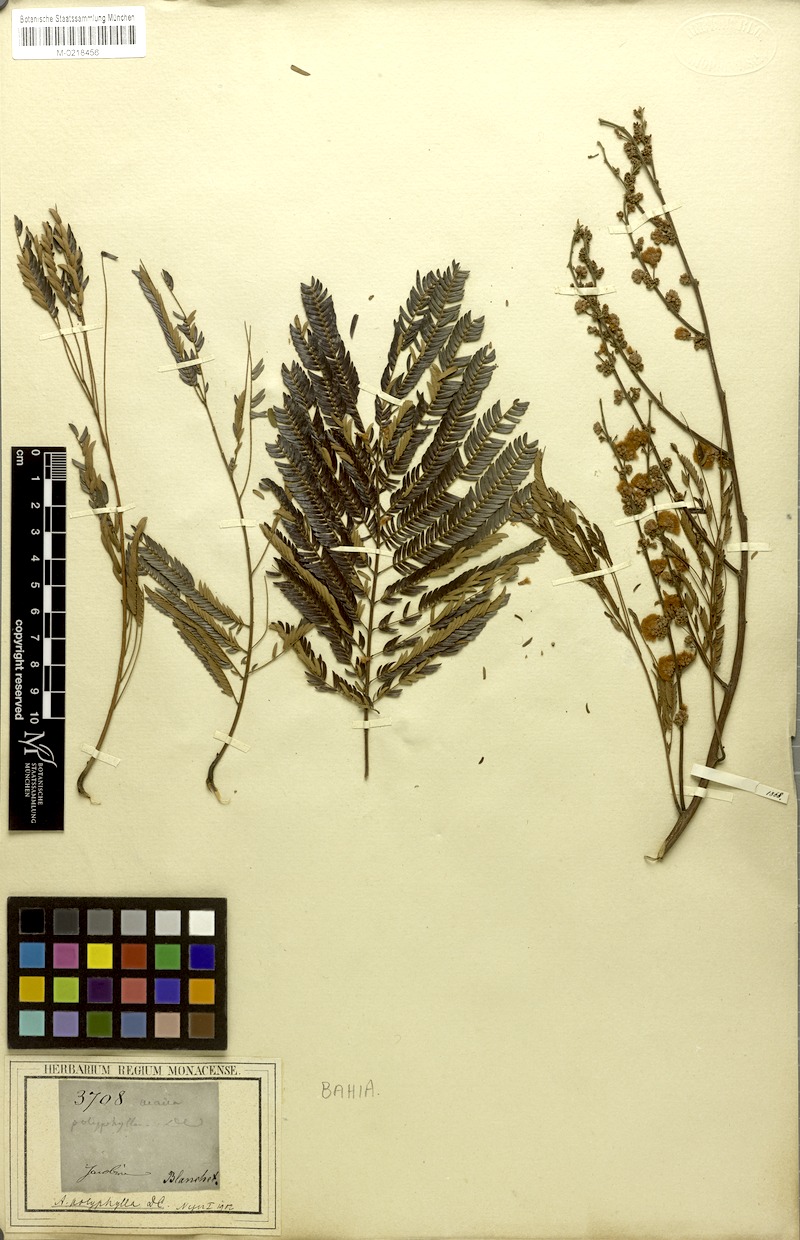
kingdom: Plantae
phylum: Tracheophyta
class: Magnoliopsida
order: Fabales
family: Fabaceae
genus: Senegalia
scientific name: Senegalia polyphylla
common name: White-tamarind
